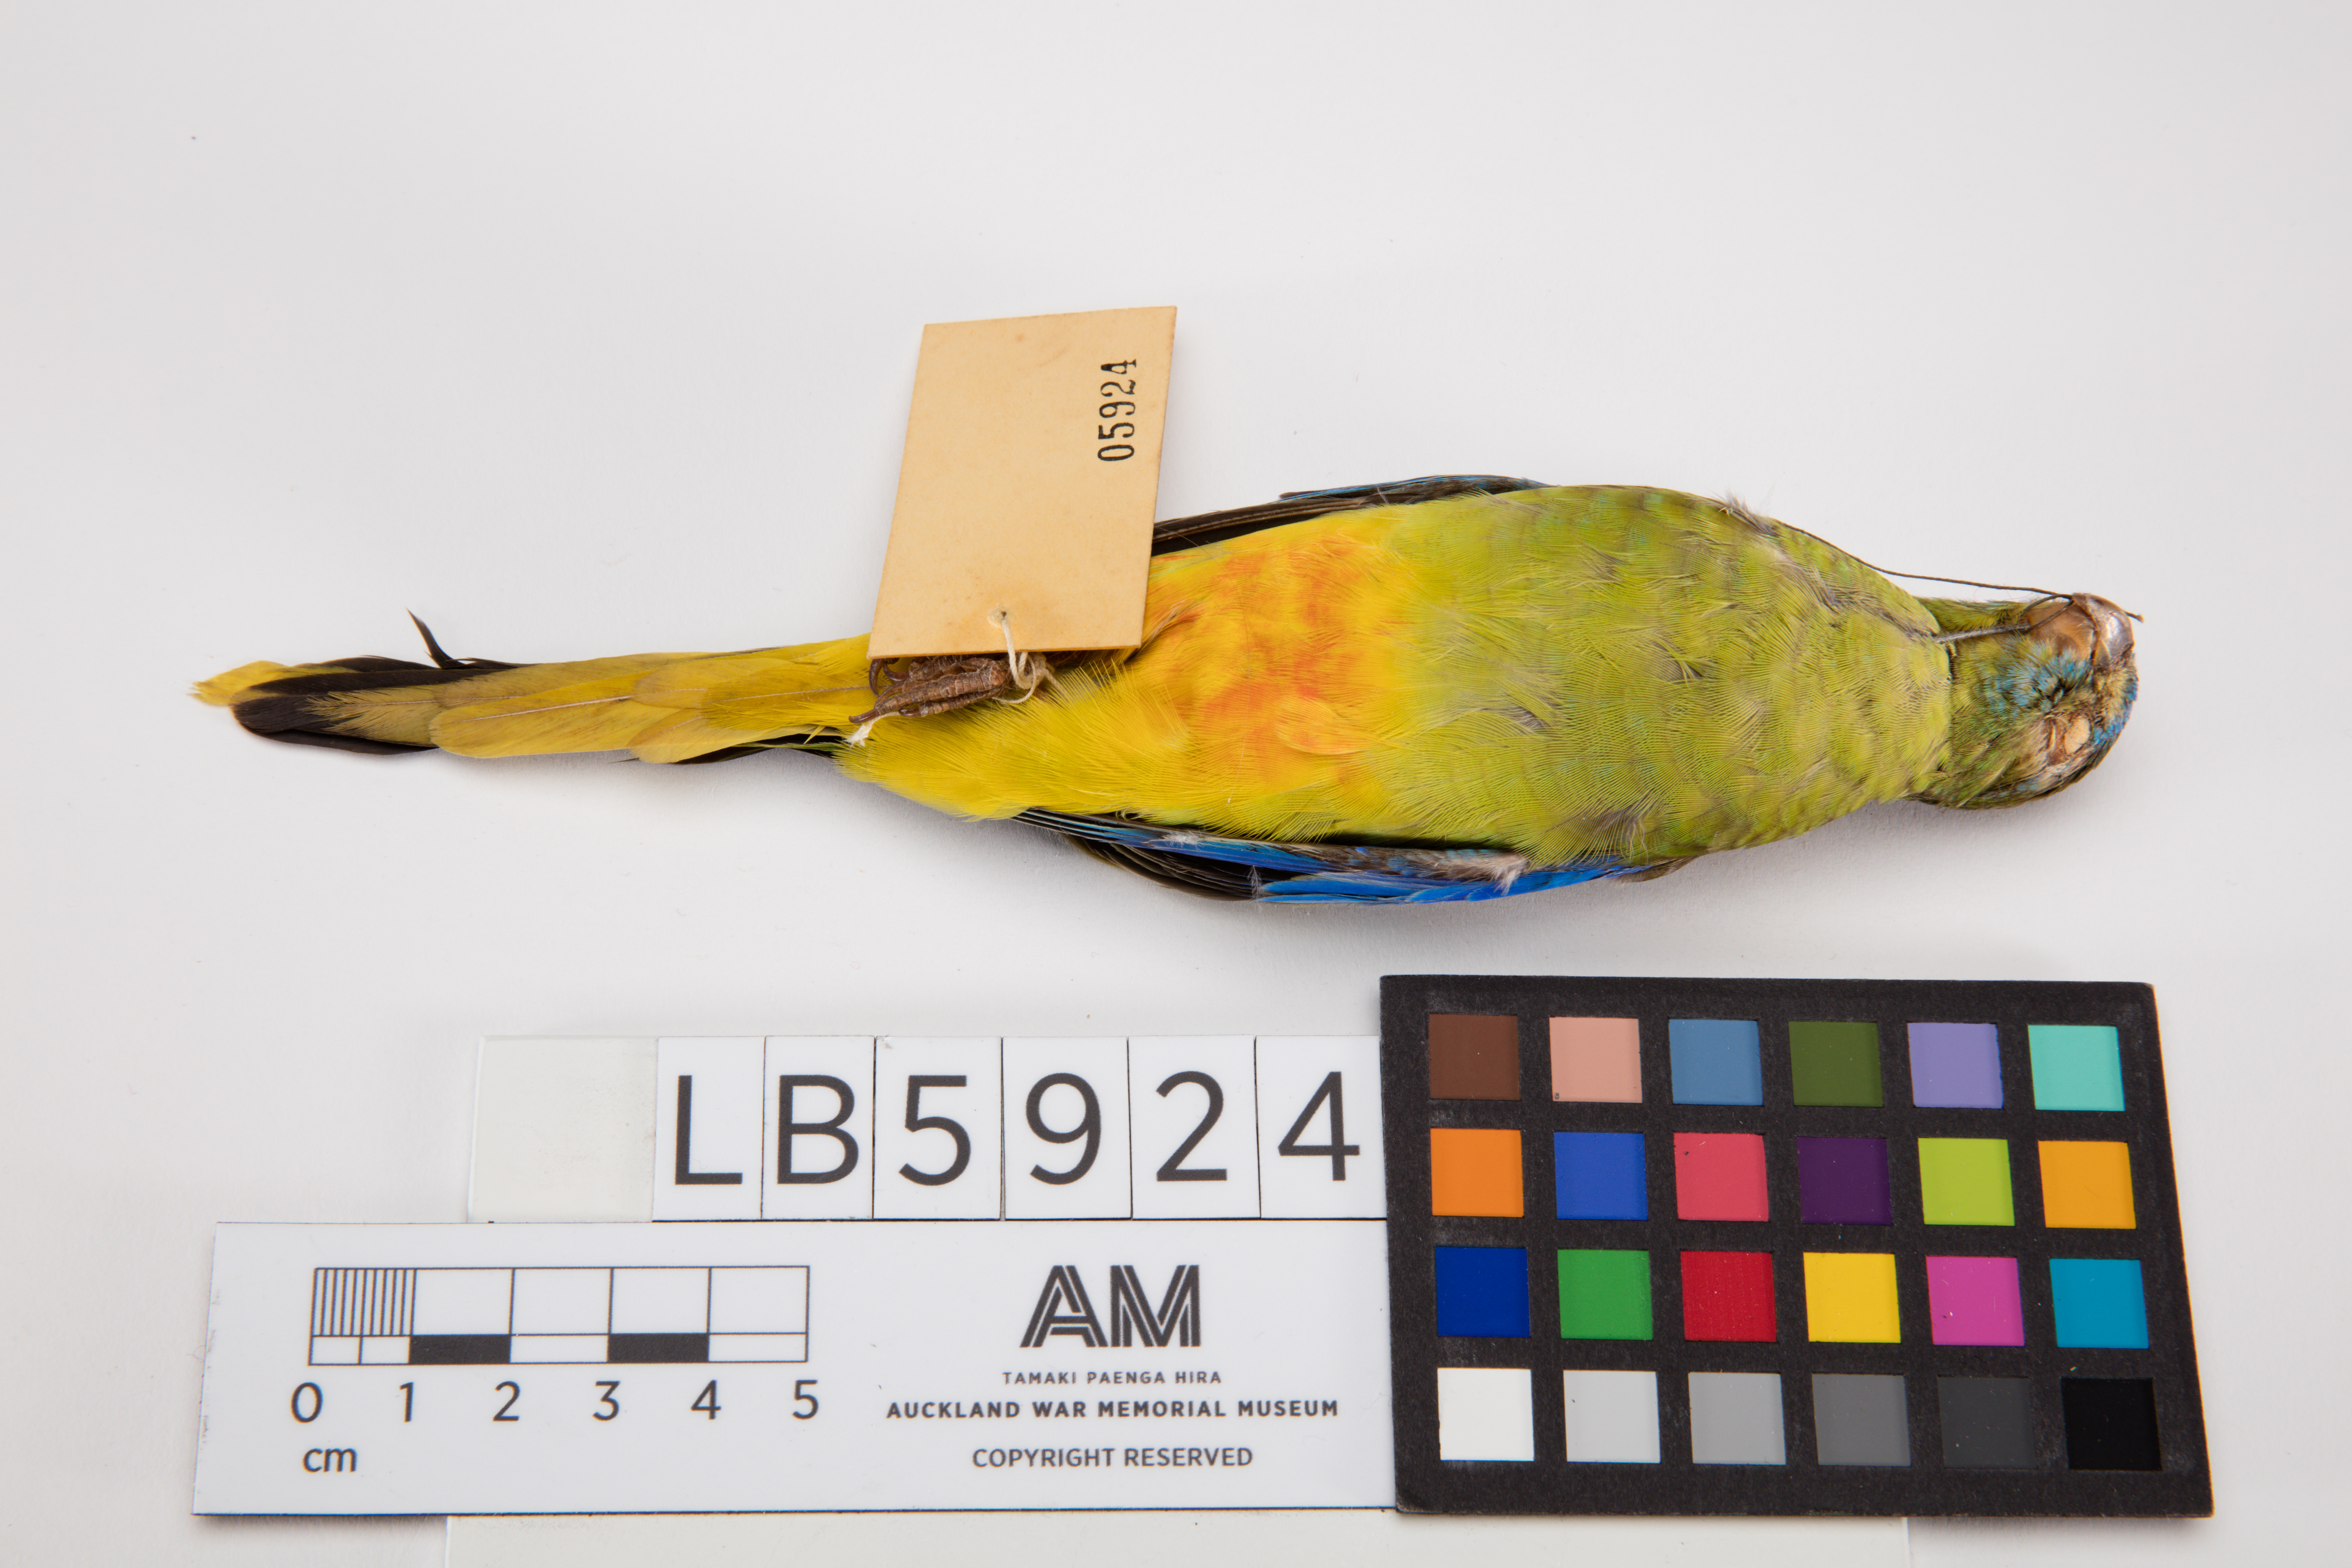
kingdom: Animalia
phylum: Chordata
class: Aves
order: Psittaciformes
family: Psittacidae
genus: Neophema
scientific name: Neophema pulchella
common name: Turquoise parrot
